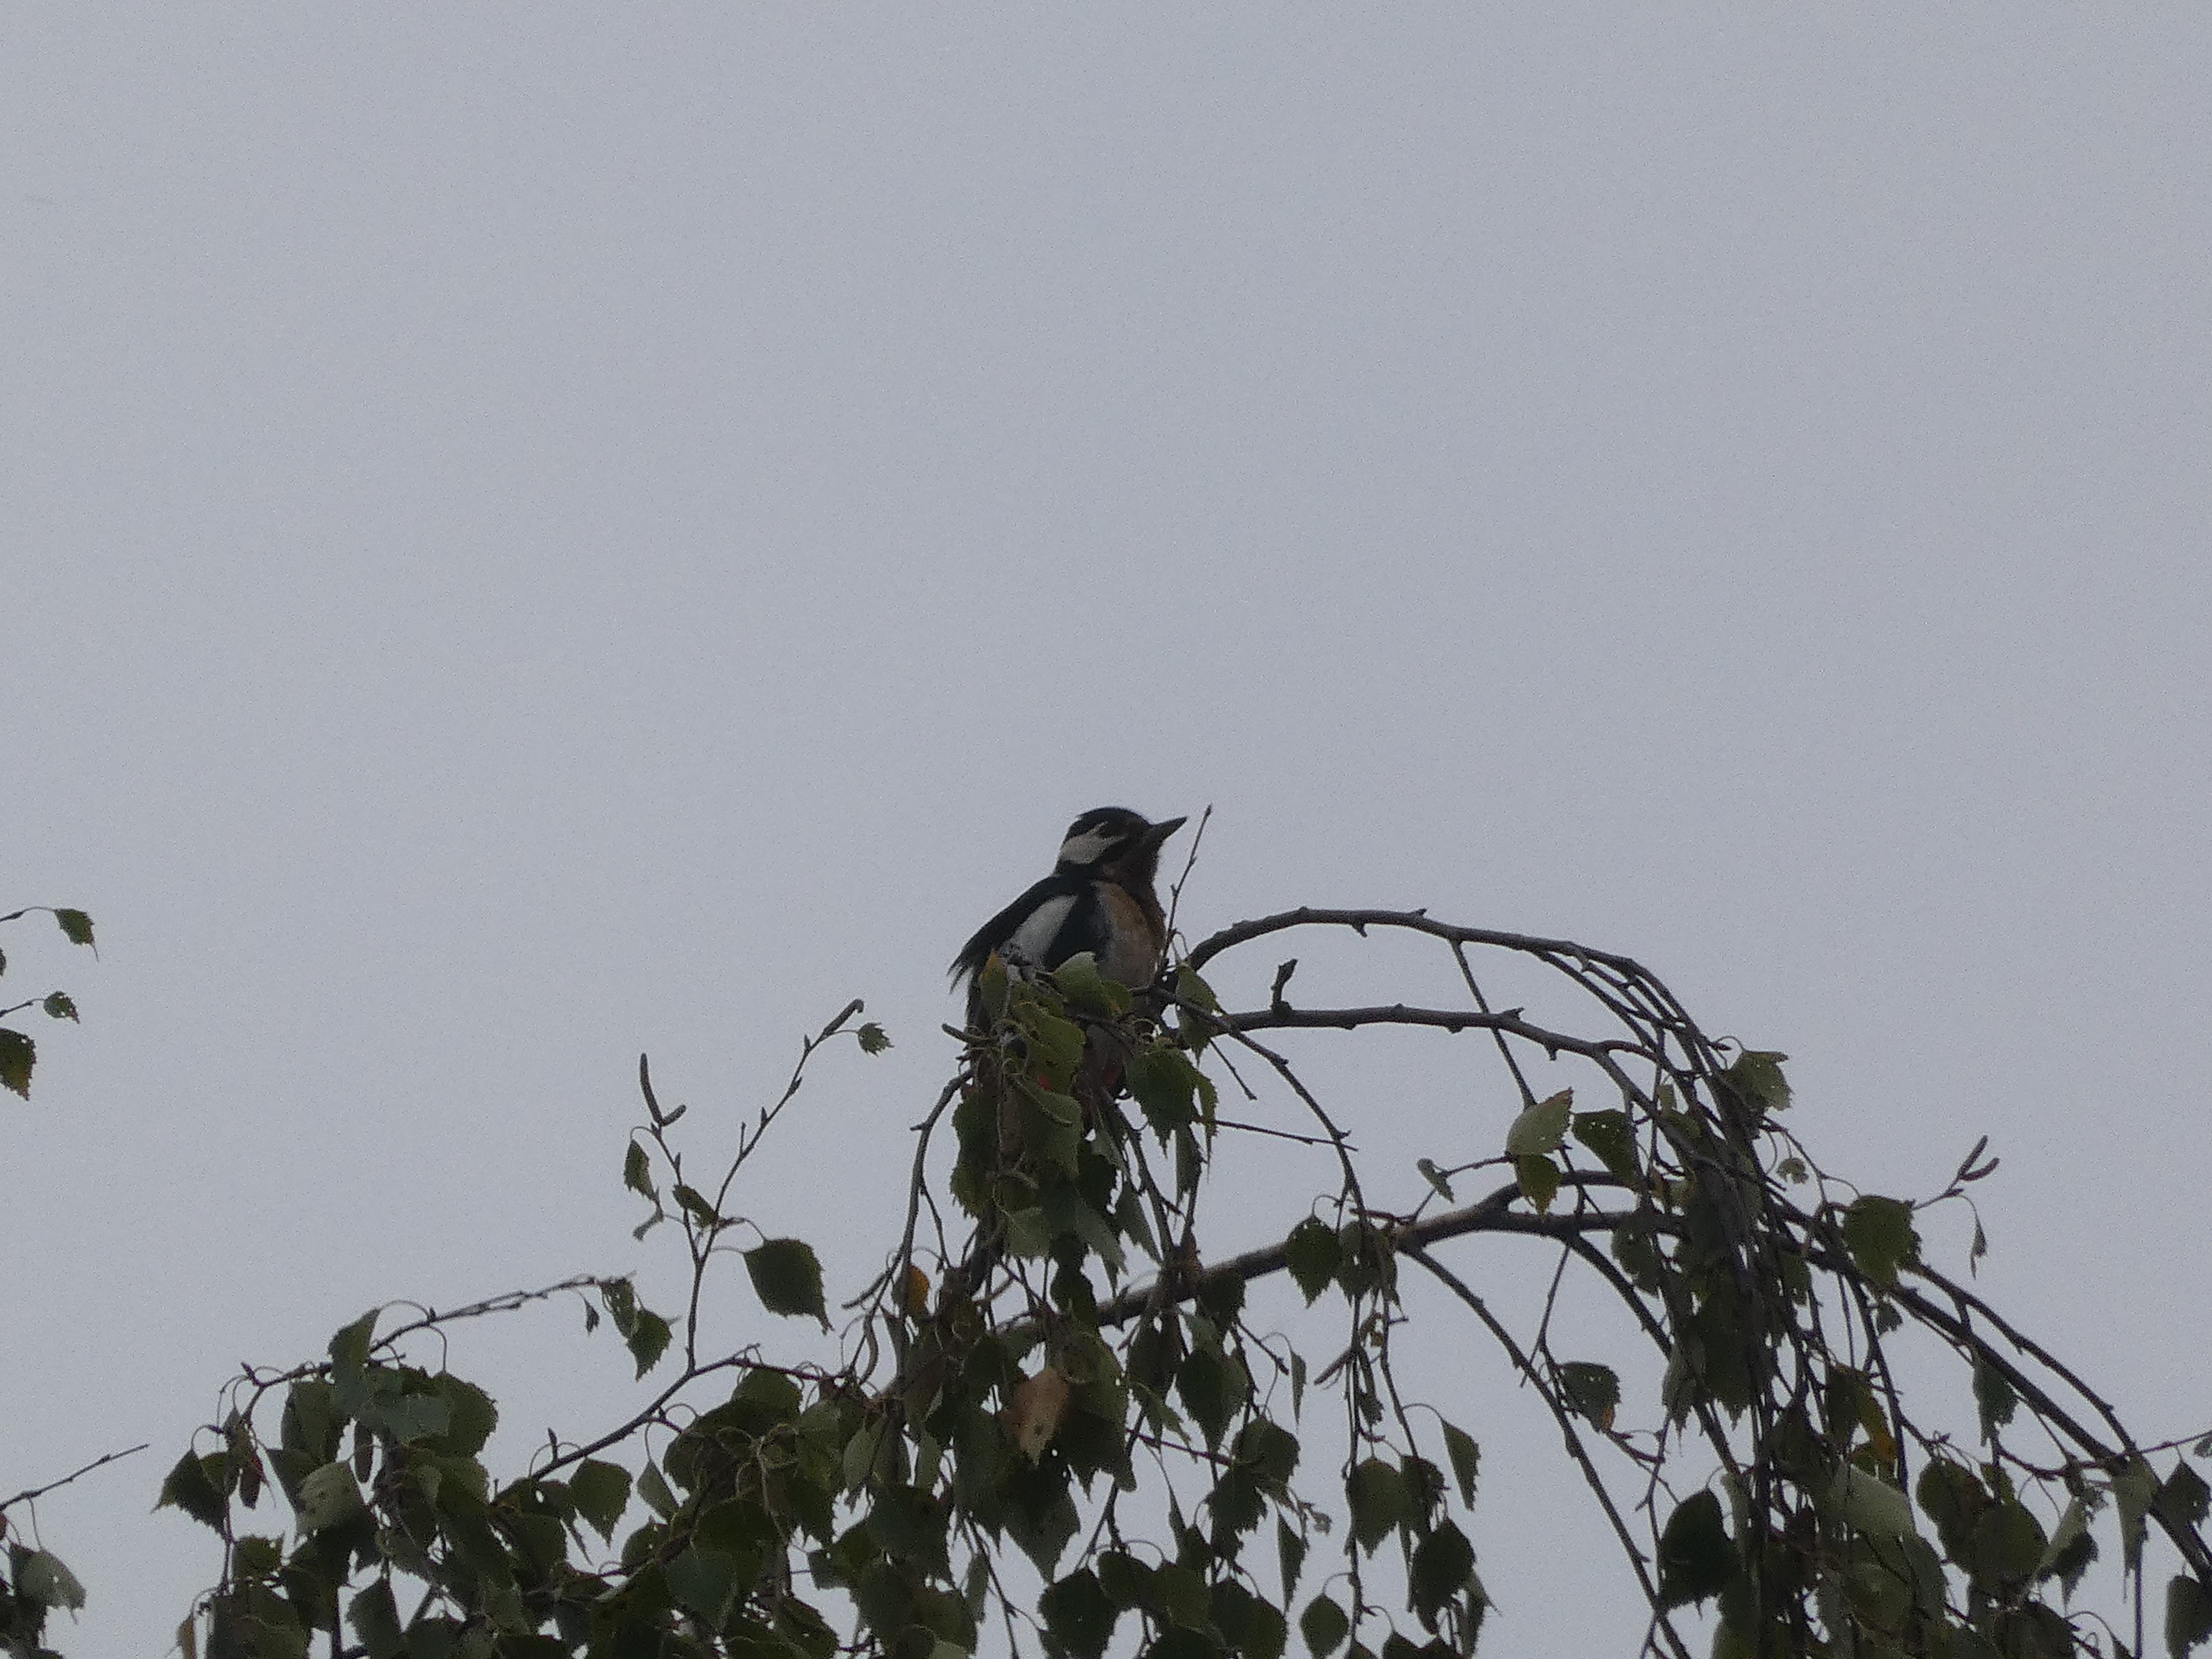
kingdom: Animalia
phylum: Chordata
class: Aves
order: Piciformes
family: Picidae
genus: Dendrocopos
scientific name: Dendrocopos major
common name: Stor flagspætte
